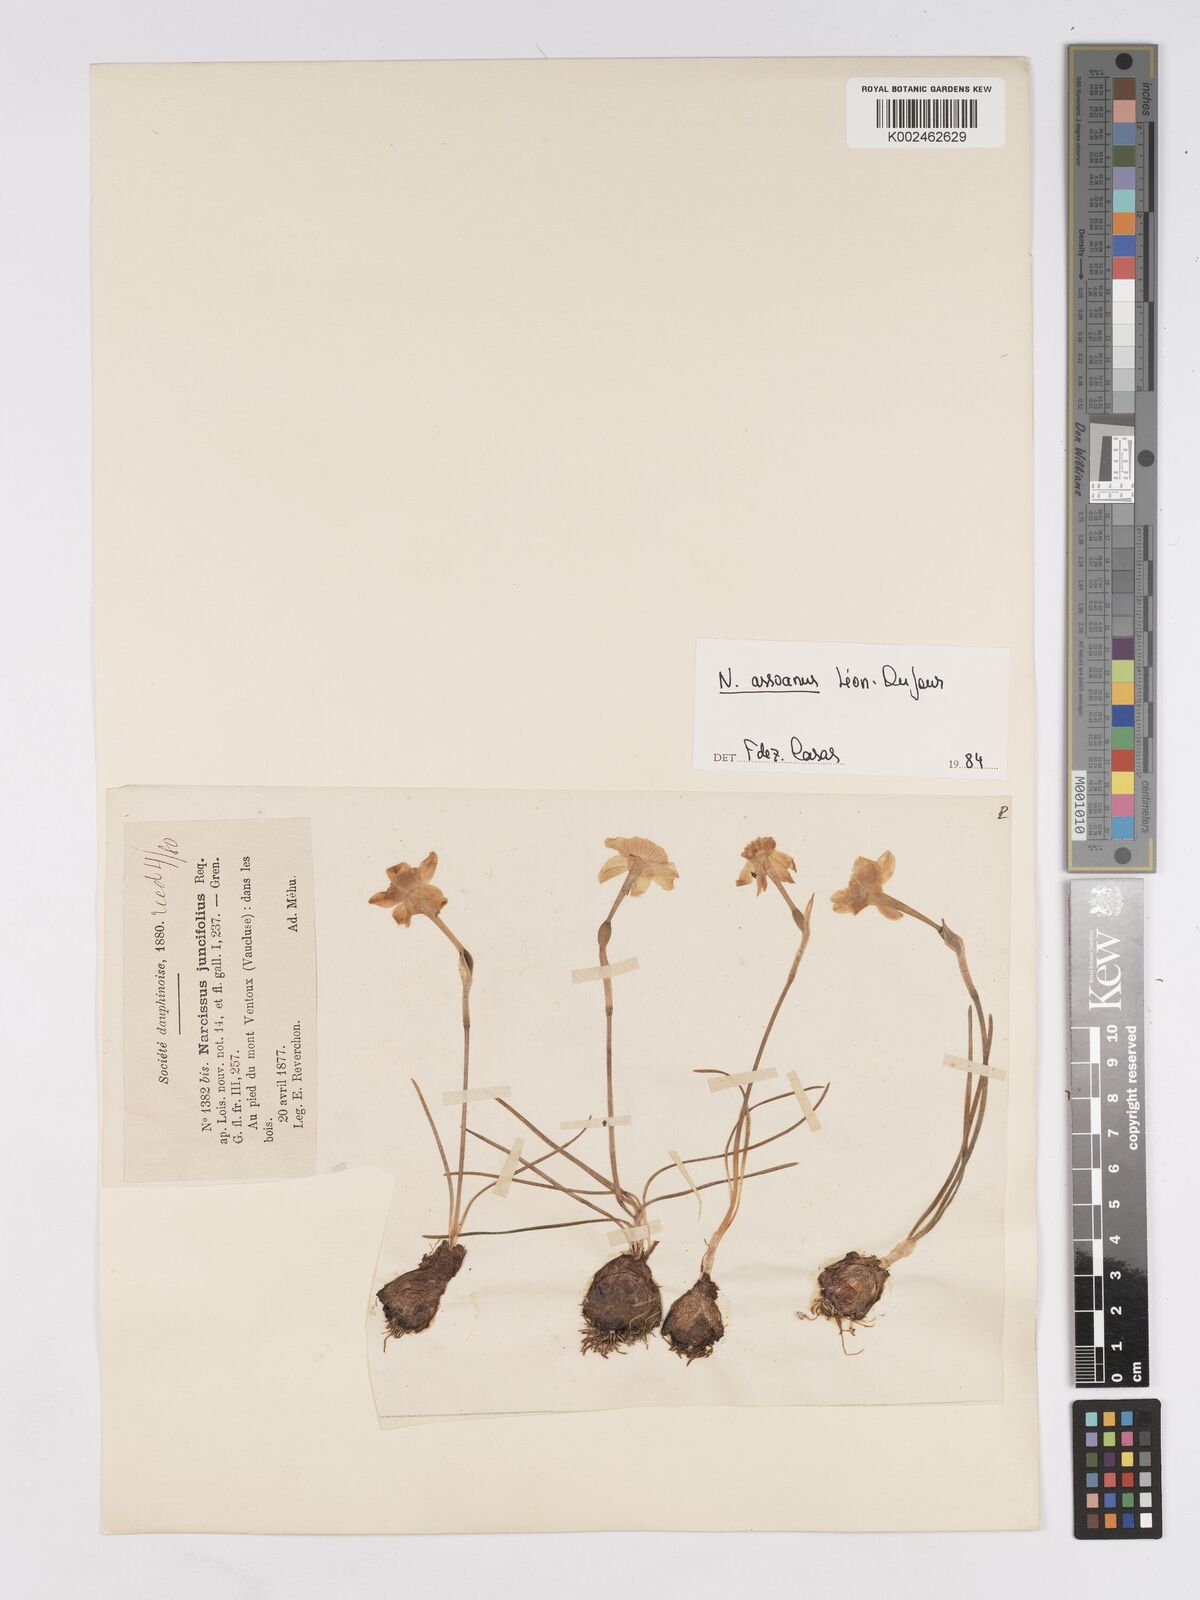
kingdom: Plantae
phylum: Tracheophyta
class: Liliopsida
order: Asparagales
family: Amaryllidaceae
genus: Narcissus
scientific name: Narcissus assoanus
